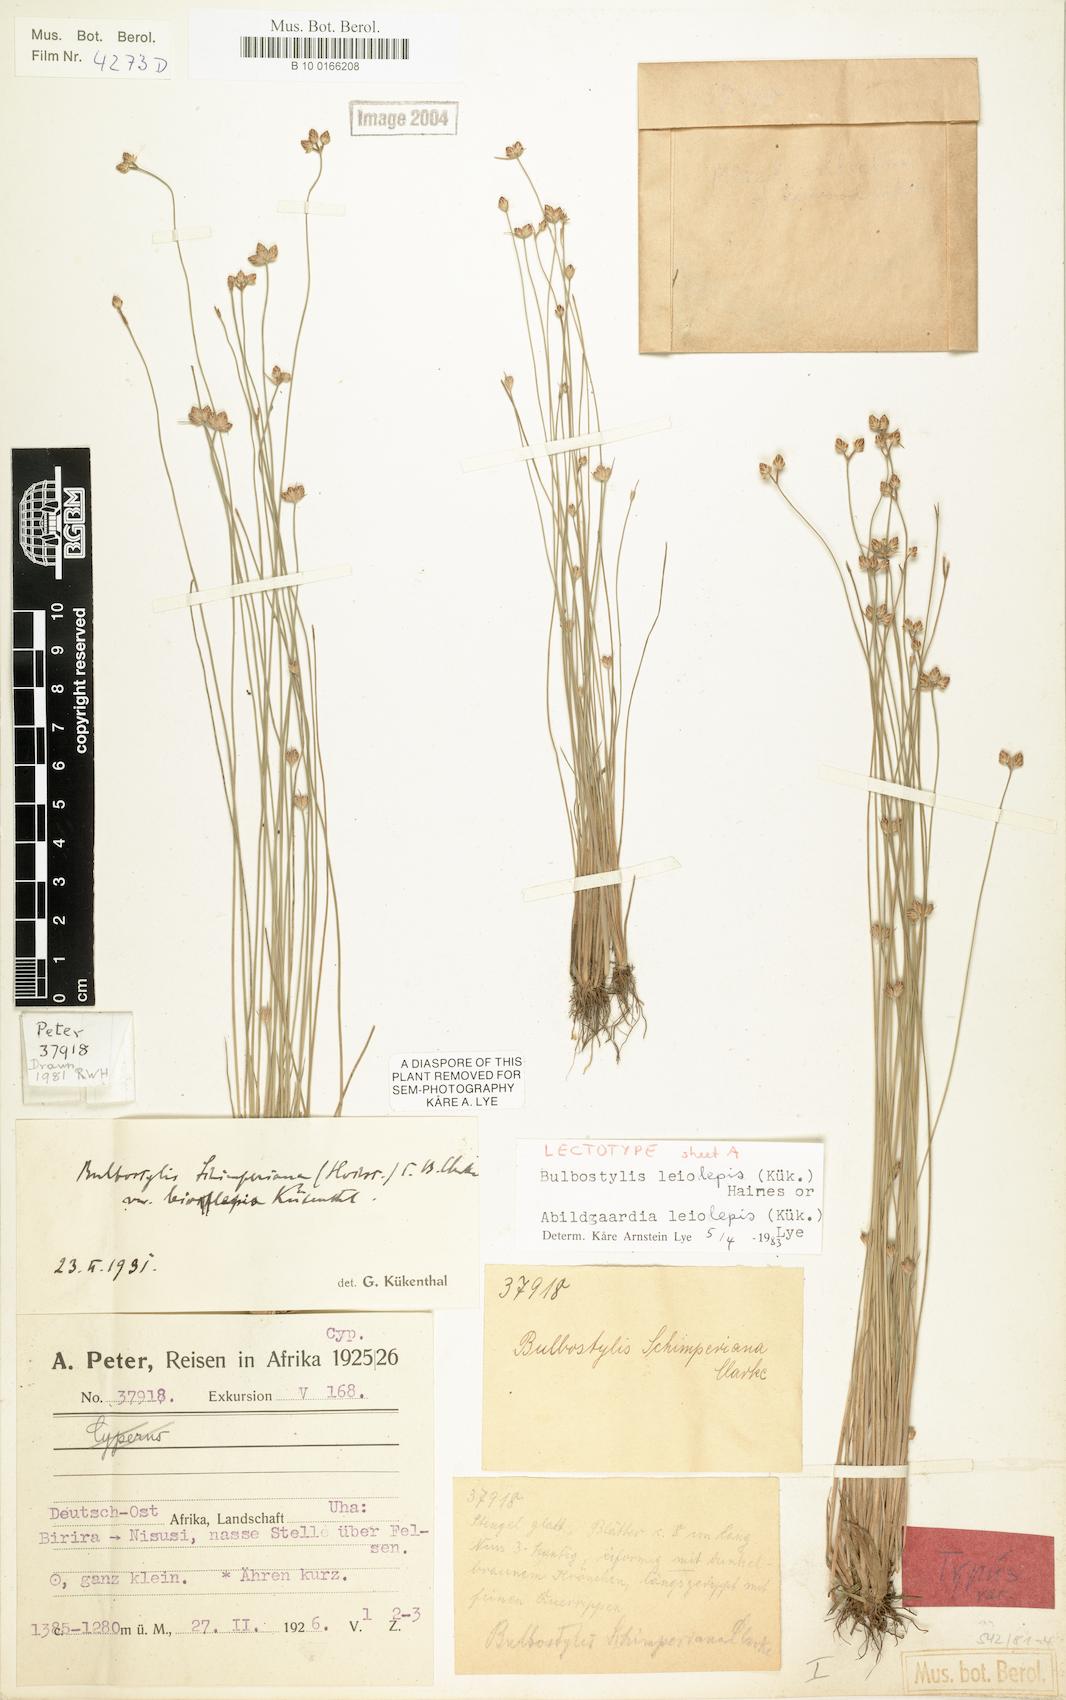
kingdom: Plantae
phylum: Tracheophyta
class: Liliopsida
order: Poales
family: Cyperaceae
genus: Bulbostylis
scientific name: Bulbostylis leiolepis
